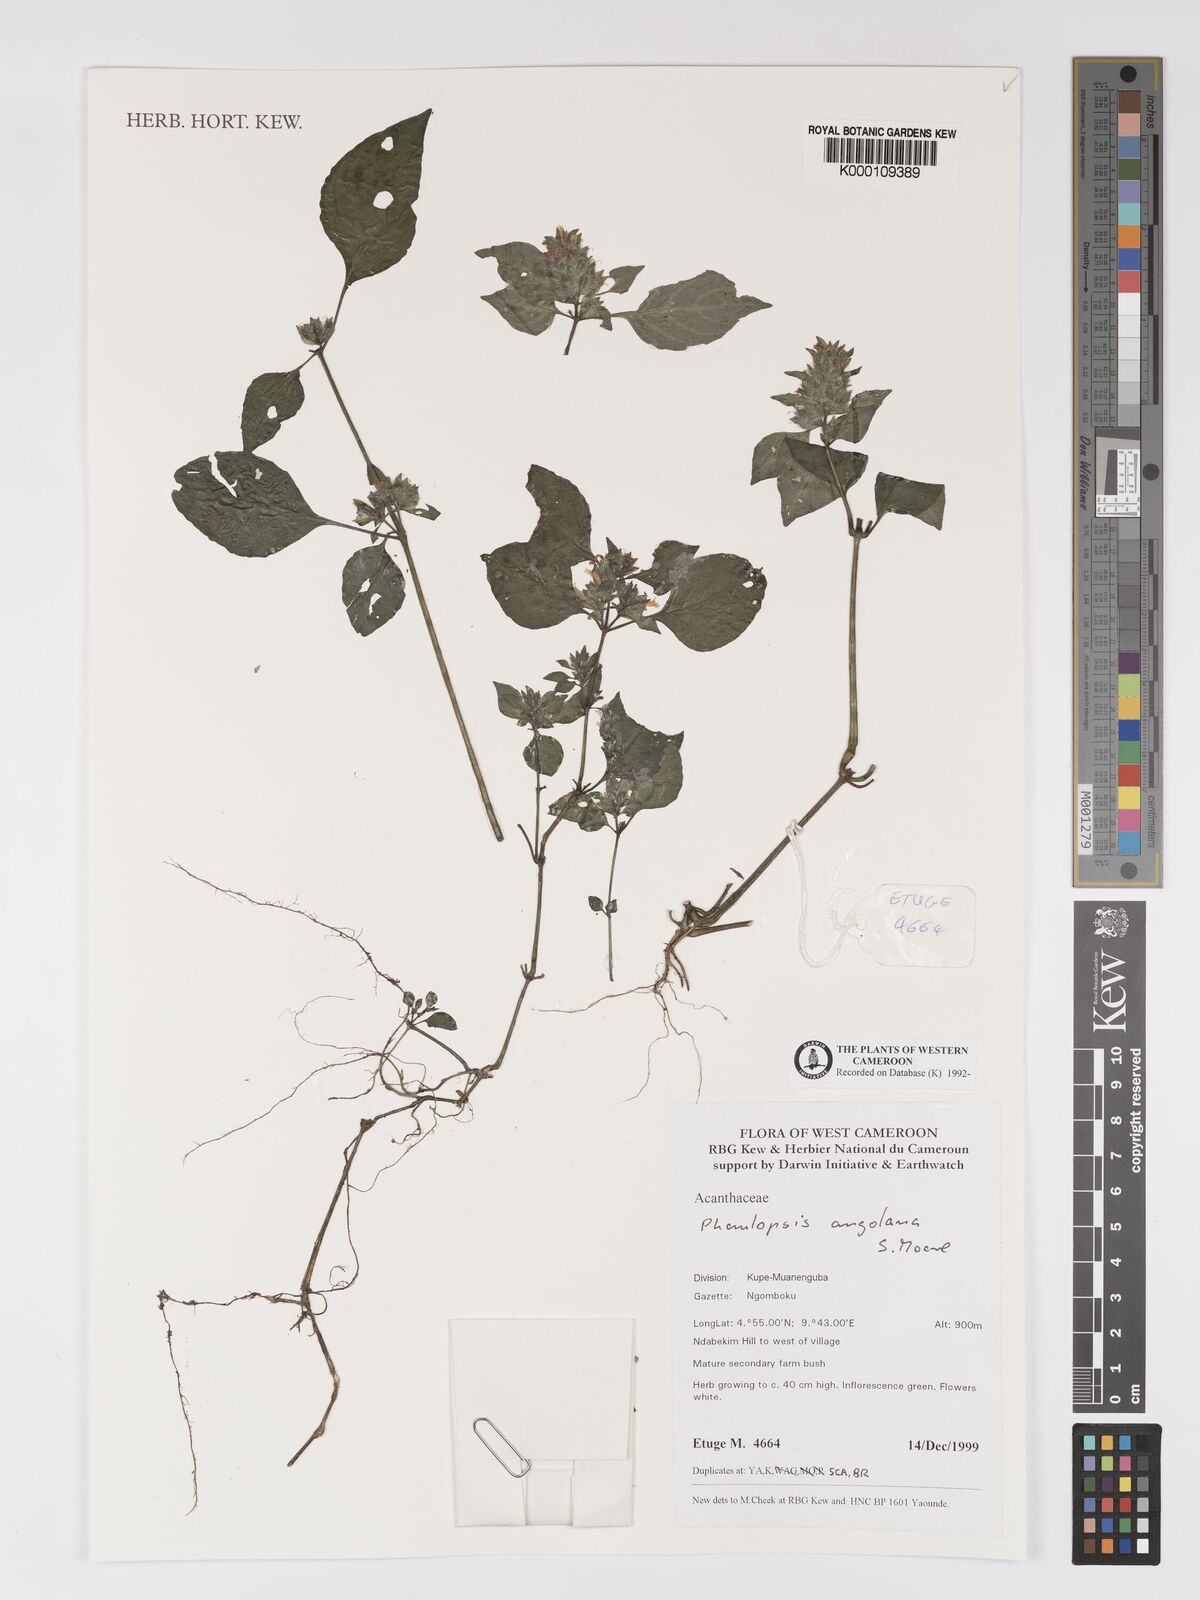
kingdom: Plantae
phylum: Tracheophyta
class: Magnoliopsida
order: Lamiales
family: Acanthaceae
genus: Phaulopsis
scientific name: Phaulopsis angolana
